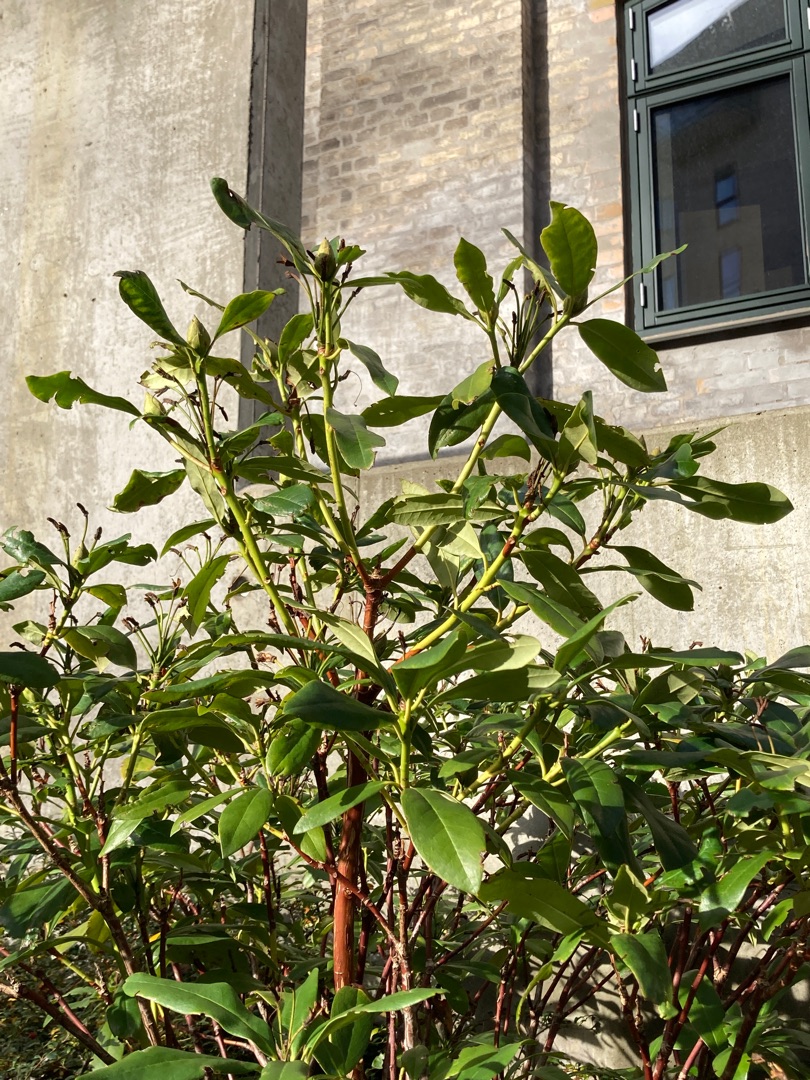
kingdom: Plantae
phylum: Tracheophyta
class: Magnoliopsida
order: Ericales
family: Ericaceae
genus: Rhododendron
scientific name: Rhododendron
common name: Rhododendronslægten
